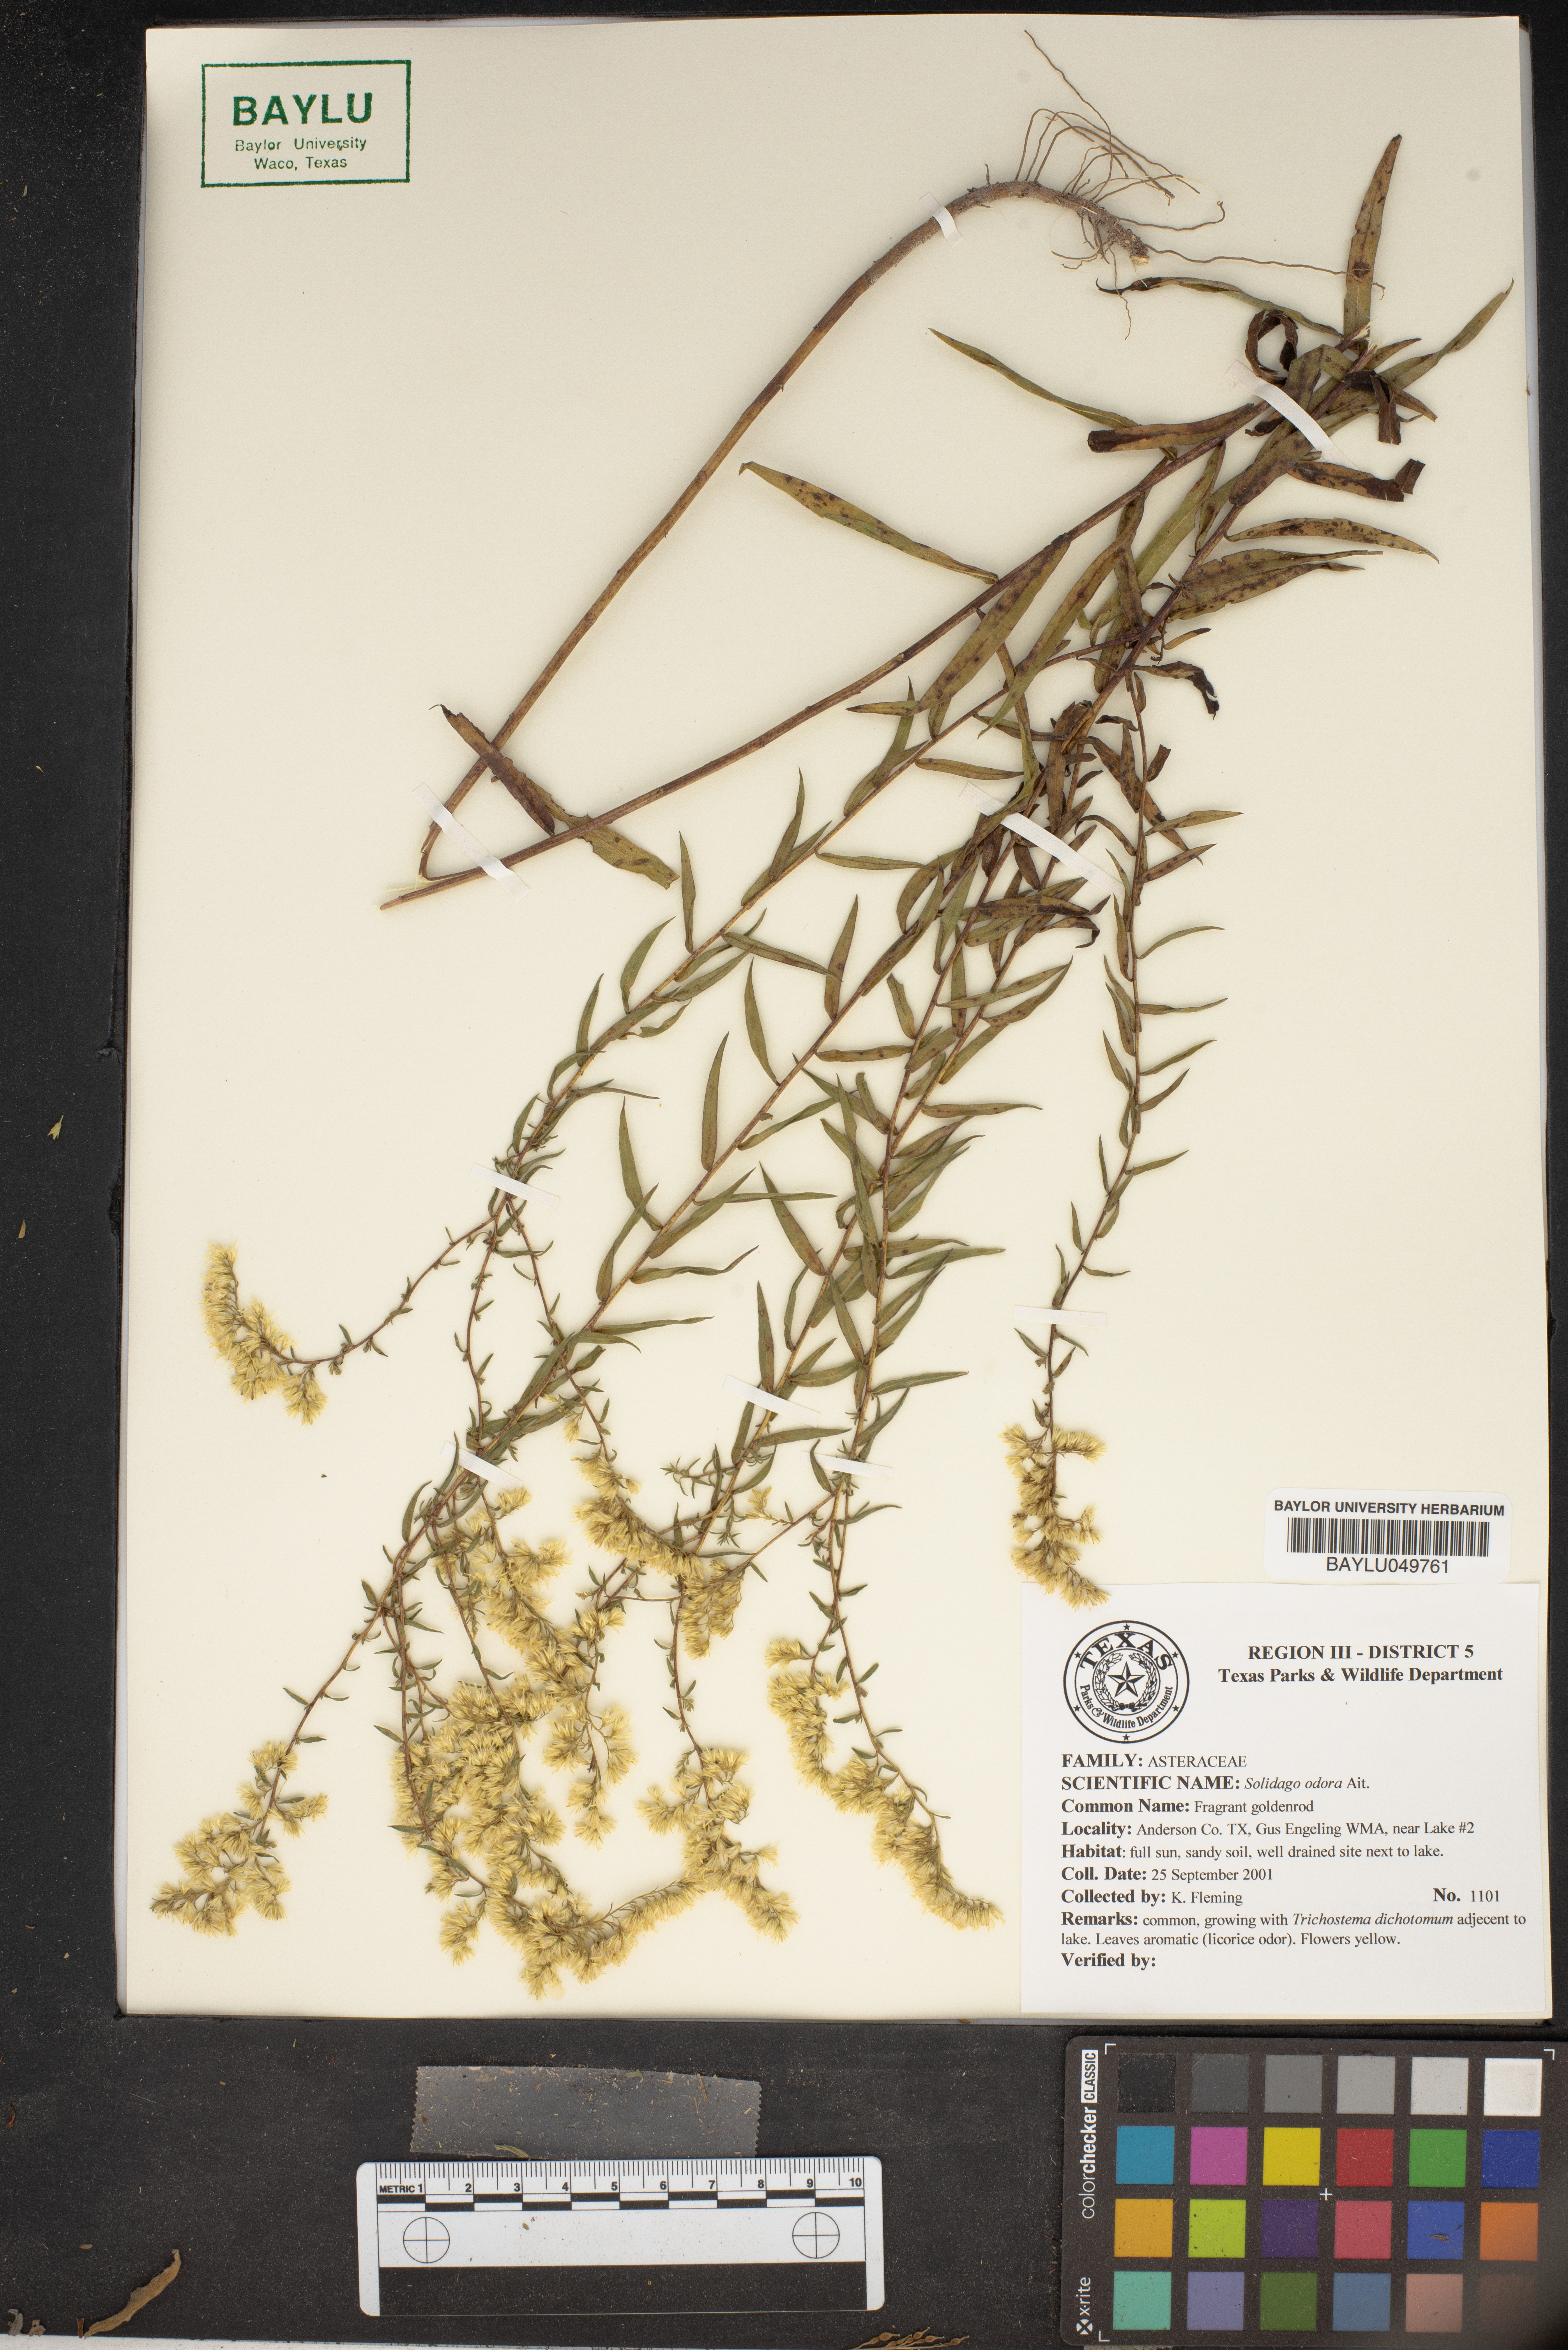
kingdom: Plantae
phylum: Tracheophyta
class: Magnoliopsida
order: Asterales
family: Asteraceae
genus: Solidago
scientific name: Solidago odora
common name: Anise-scented goldenrod
